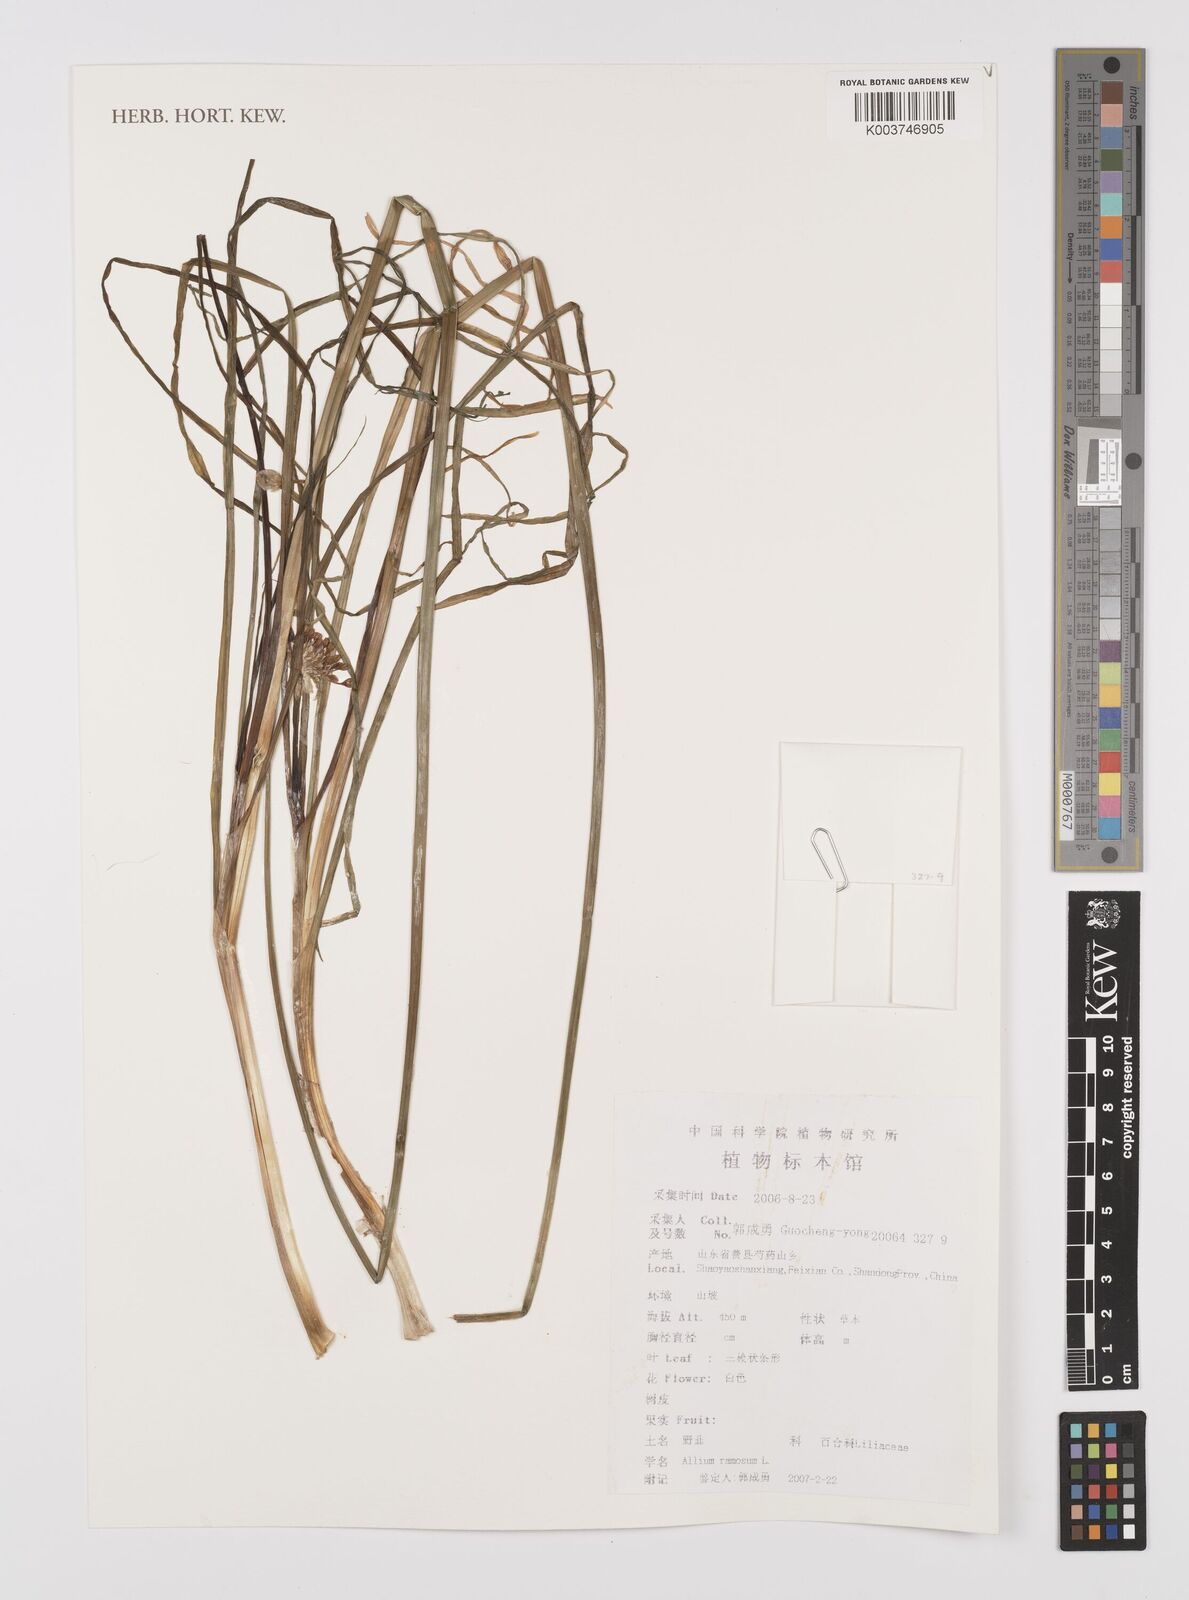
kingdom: Plantae
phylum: Tracheophyta
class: Liliopsida
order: Asparagales
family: Amaryllidaceae
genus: Allium
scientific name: Allium ramosum
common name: Fragrant garlic
